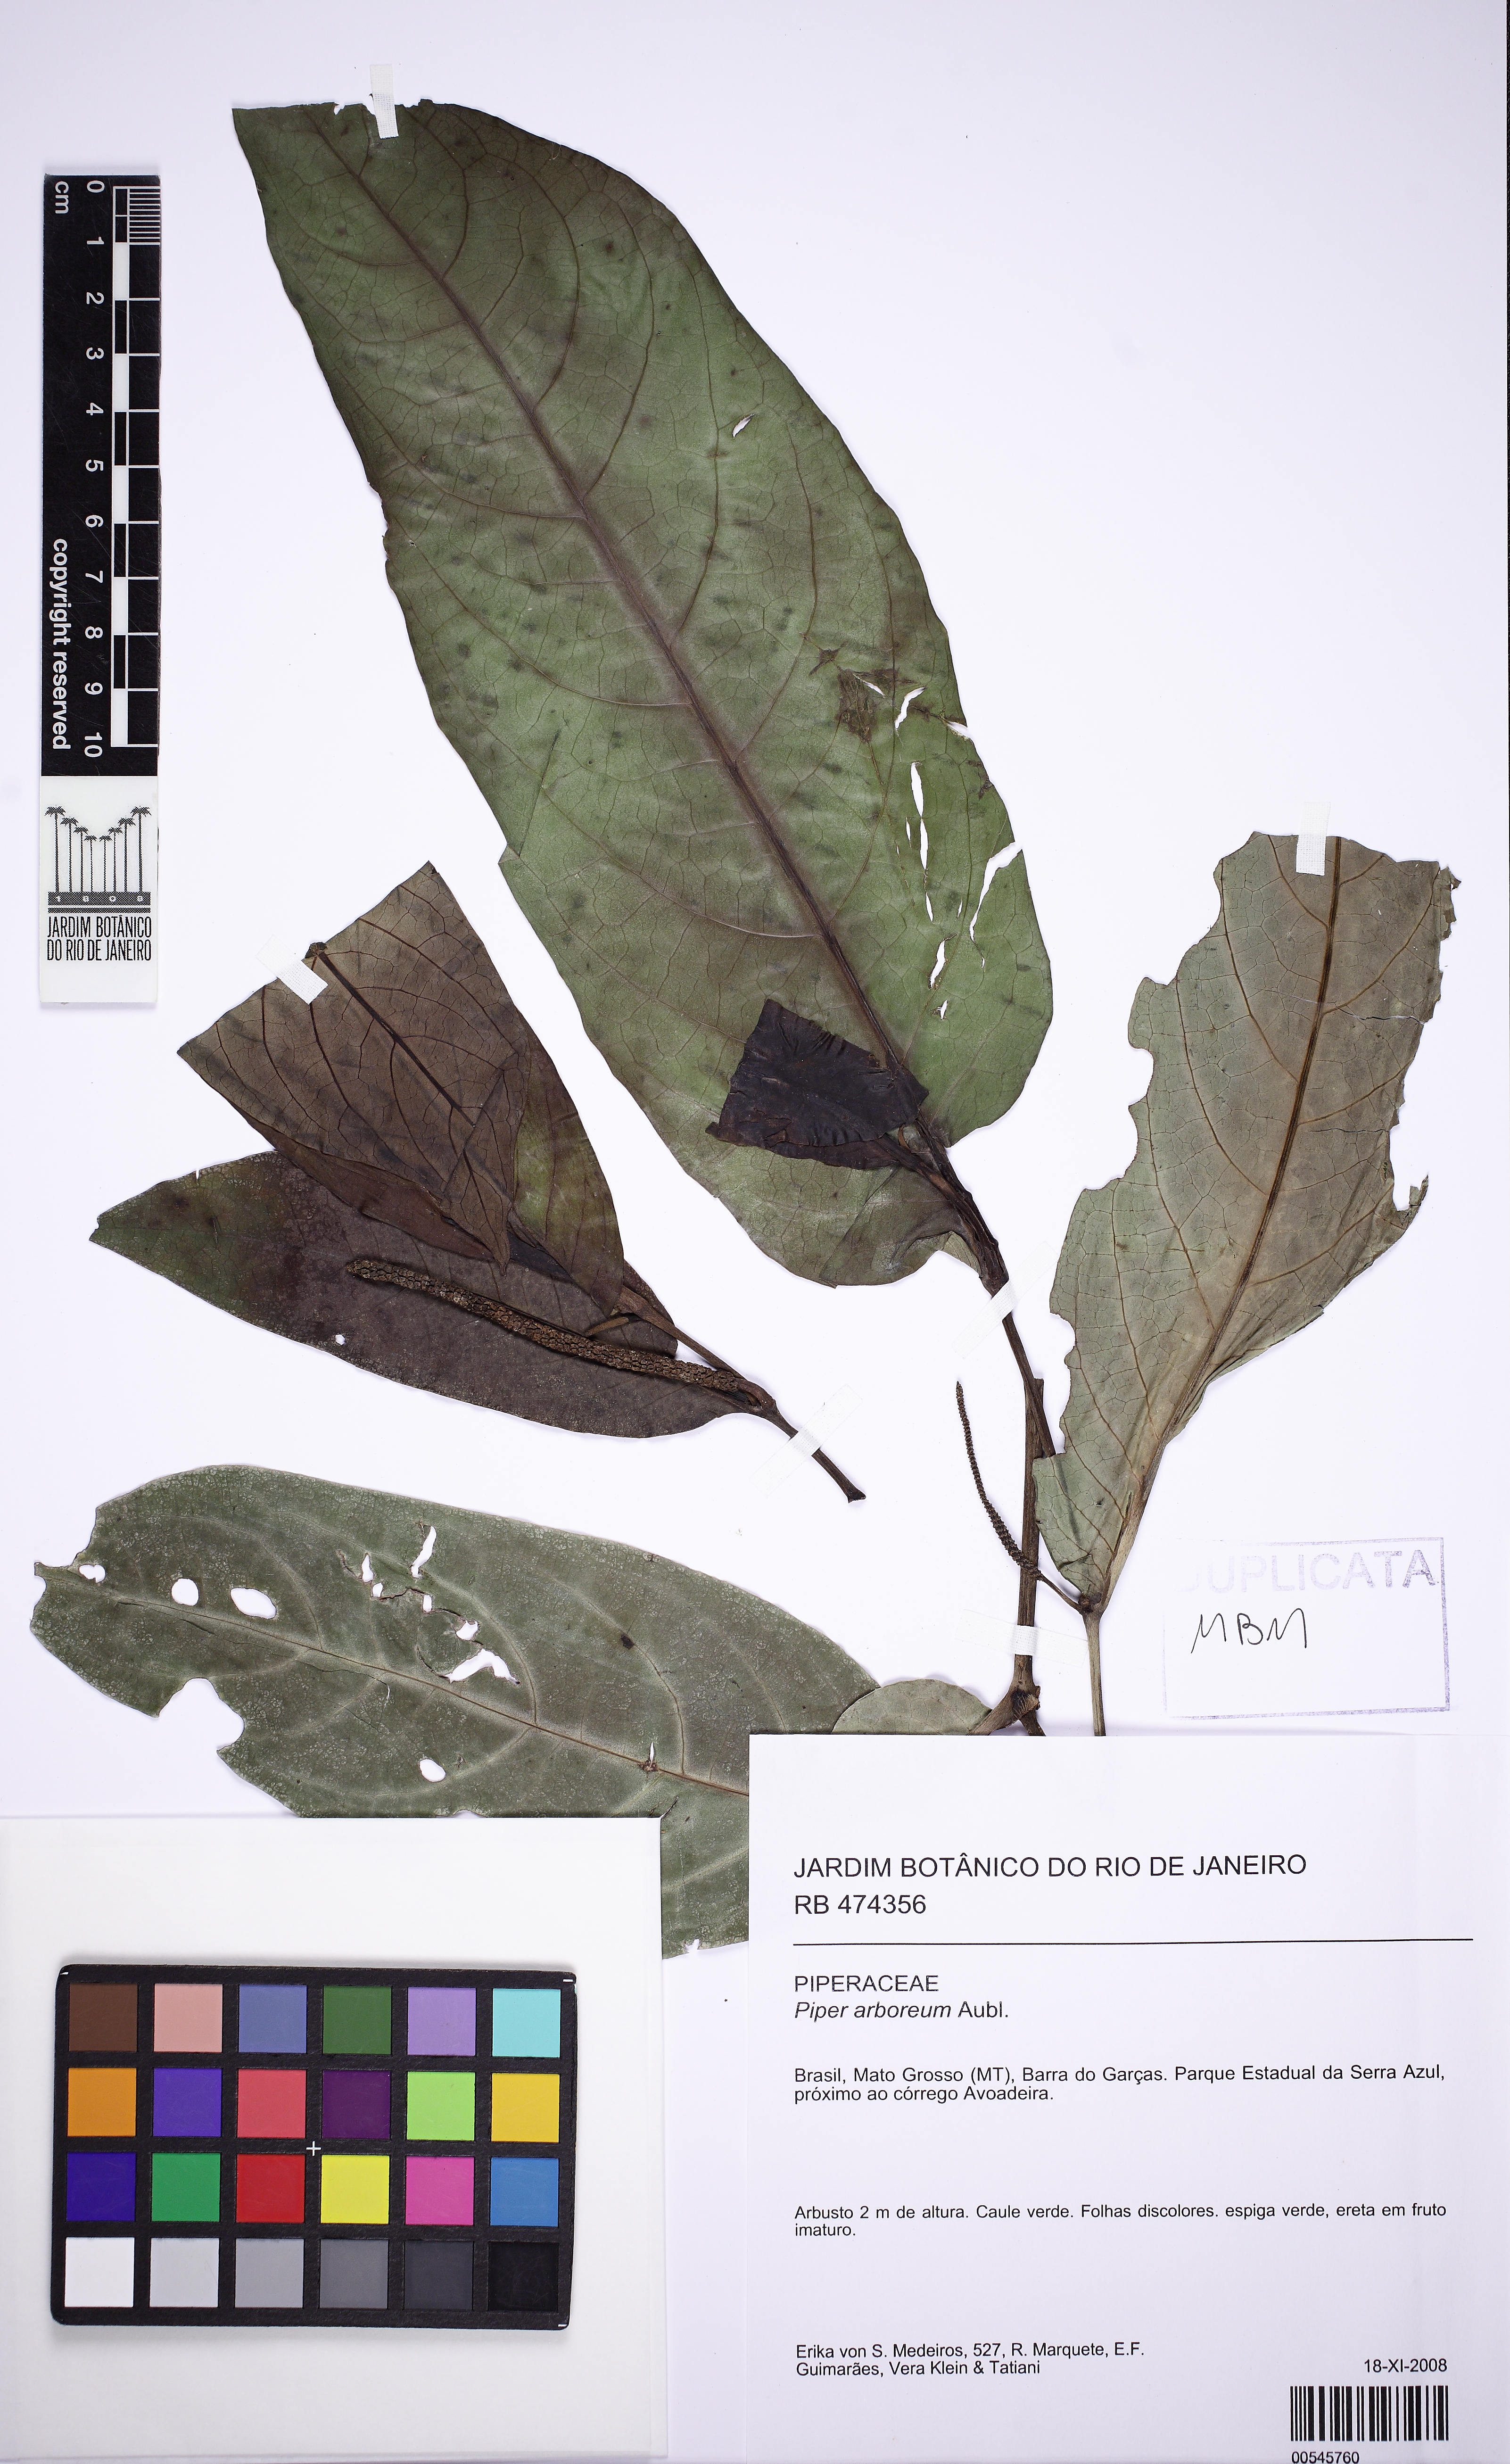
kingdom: Plantae
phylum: Tracheophyta
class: Magnoliopsida
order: Piperales
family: Piperaceae
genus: Piper
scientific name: Piper arboreum
